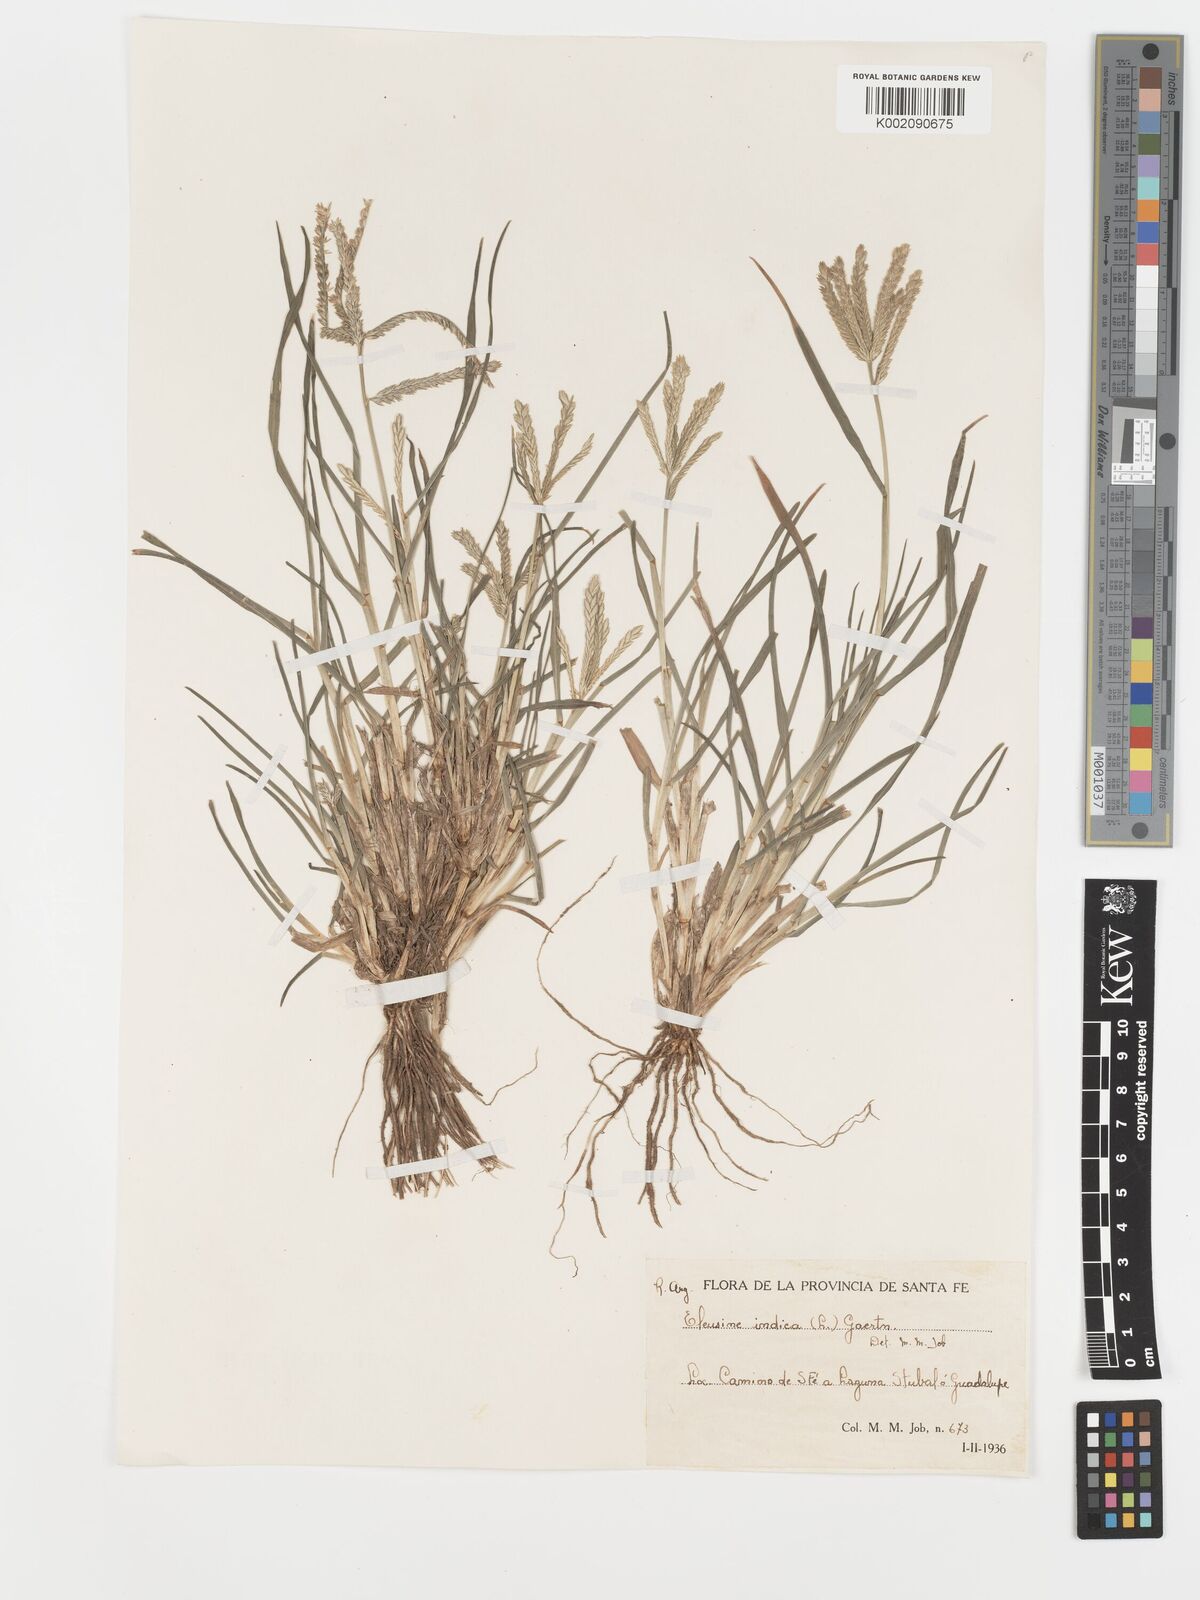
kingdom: Plantae
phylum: Tracheophyta
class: Liliopsida
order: Poales
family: Poaceae
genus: Eleusine
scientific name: Eleusine indica
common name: Yard-grass
